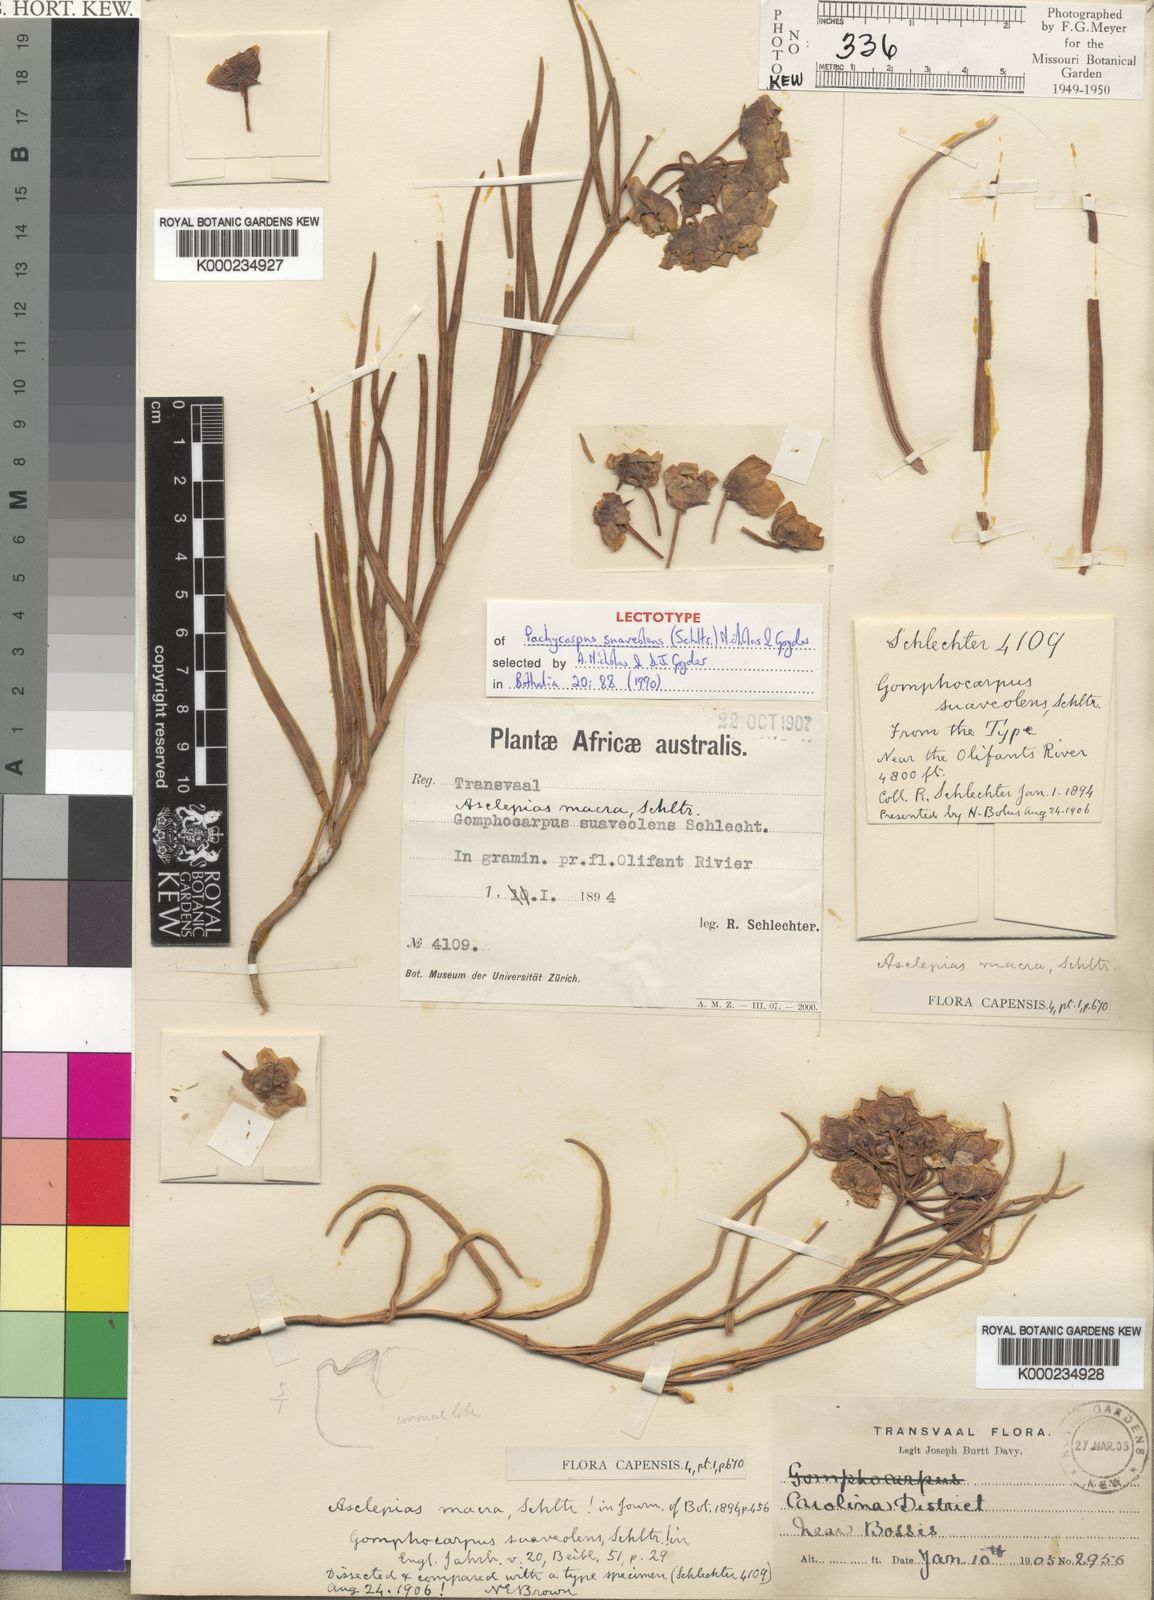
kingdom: Plantae
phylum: Tracheophyta
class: Magnoliopsida
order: Gentianales
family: Apocynaceae
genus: Pachycarpus
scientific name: Pachycarpus suaveolens
